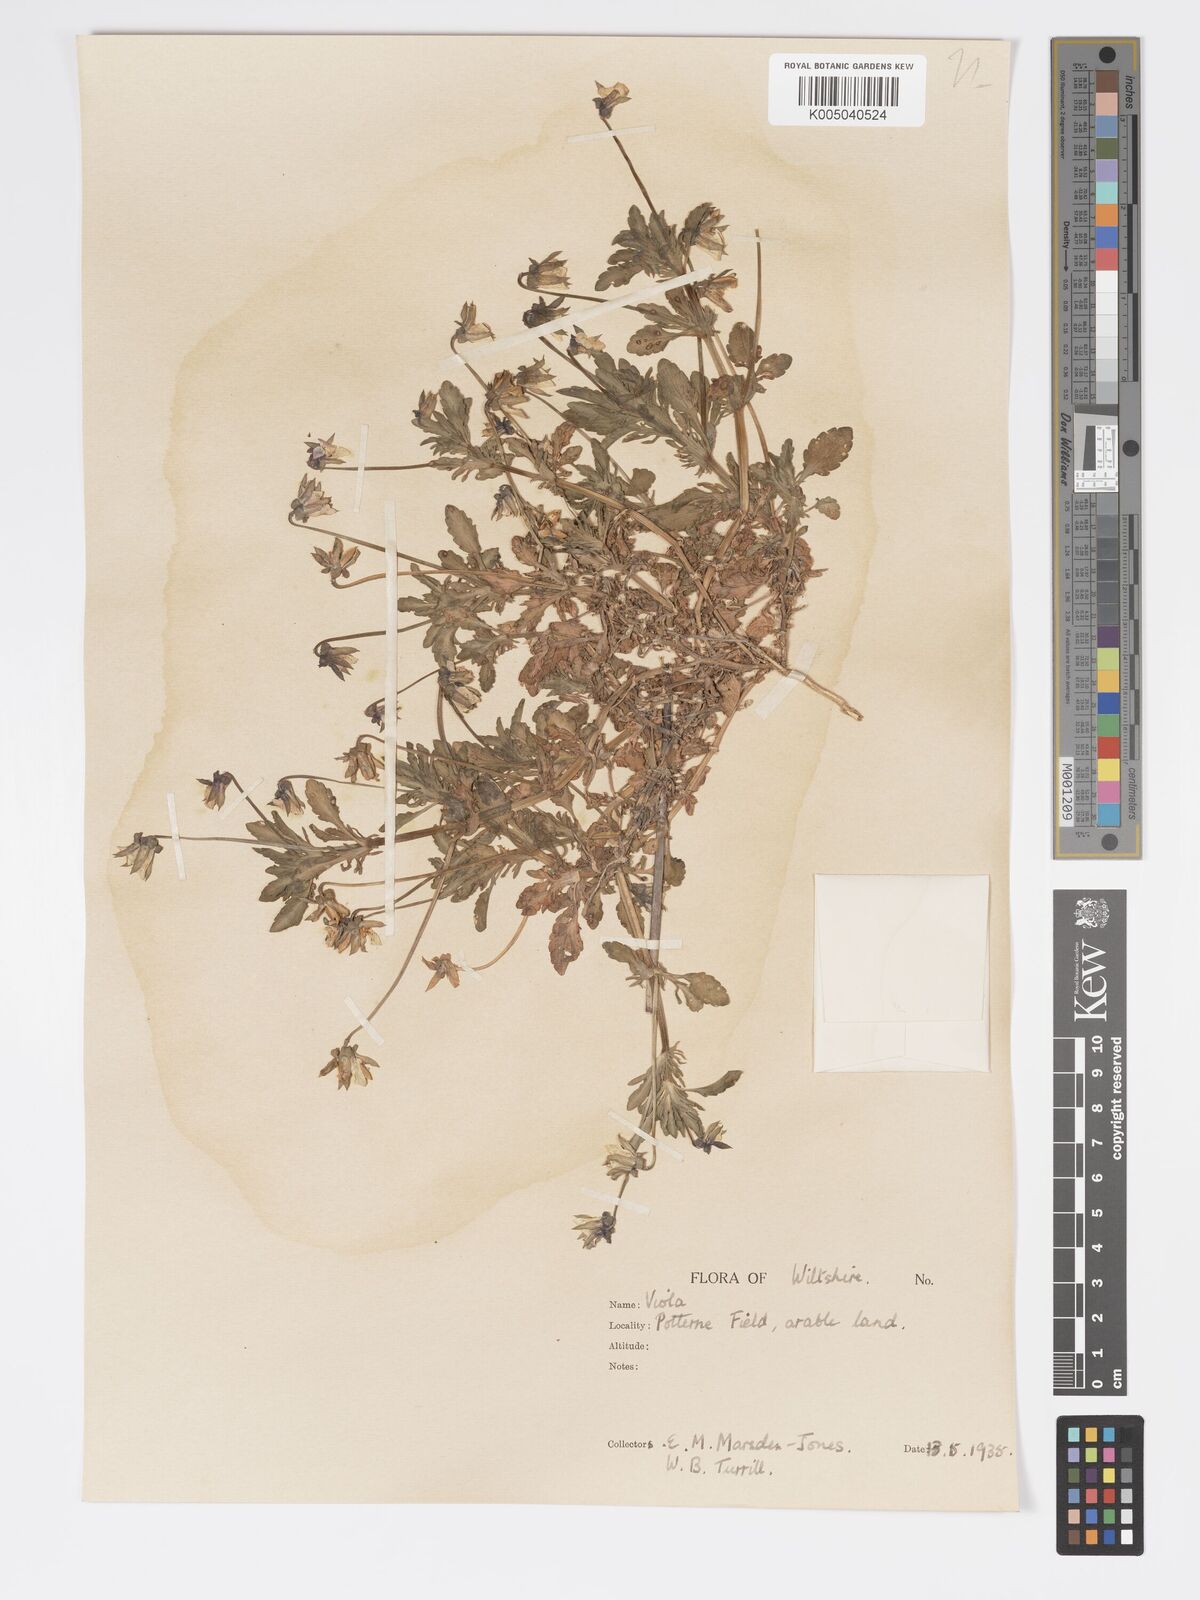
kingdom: Plantae
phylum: Tracheophyta
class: Magnoliopsida
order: Malpighiales
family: Violaceae
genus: Viola
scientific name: Viola
